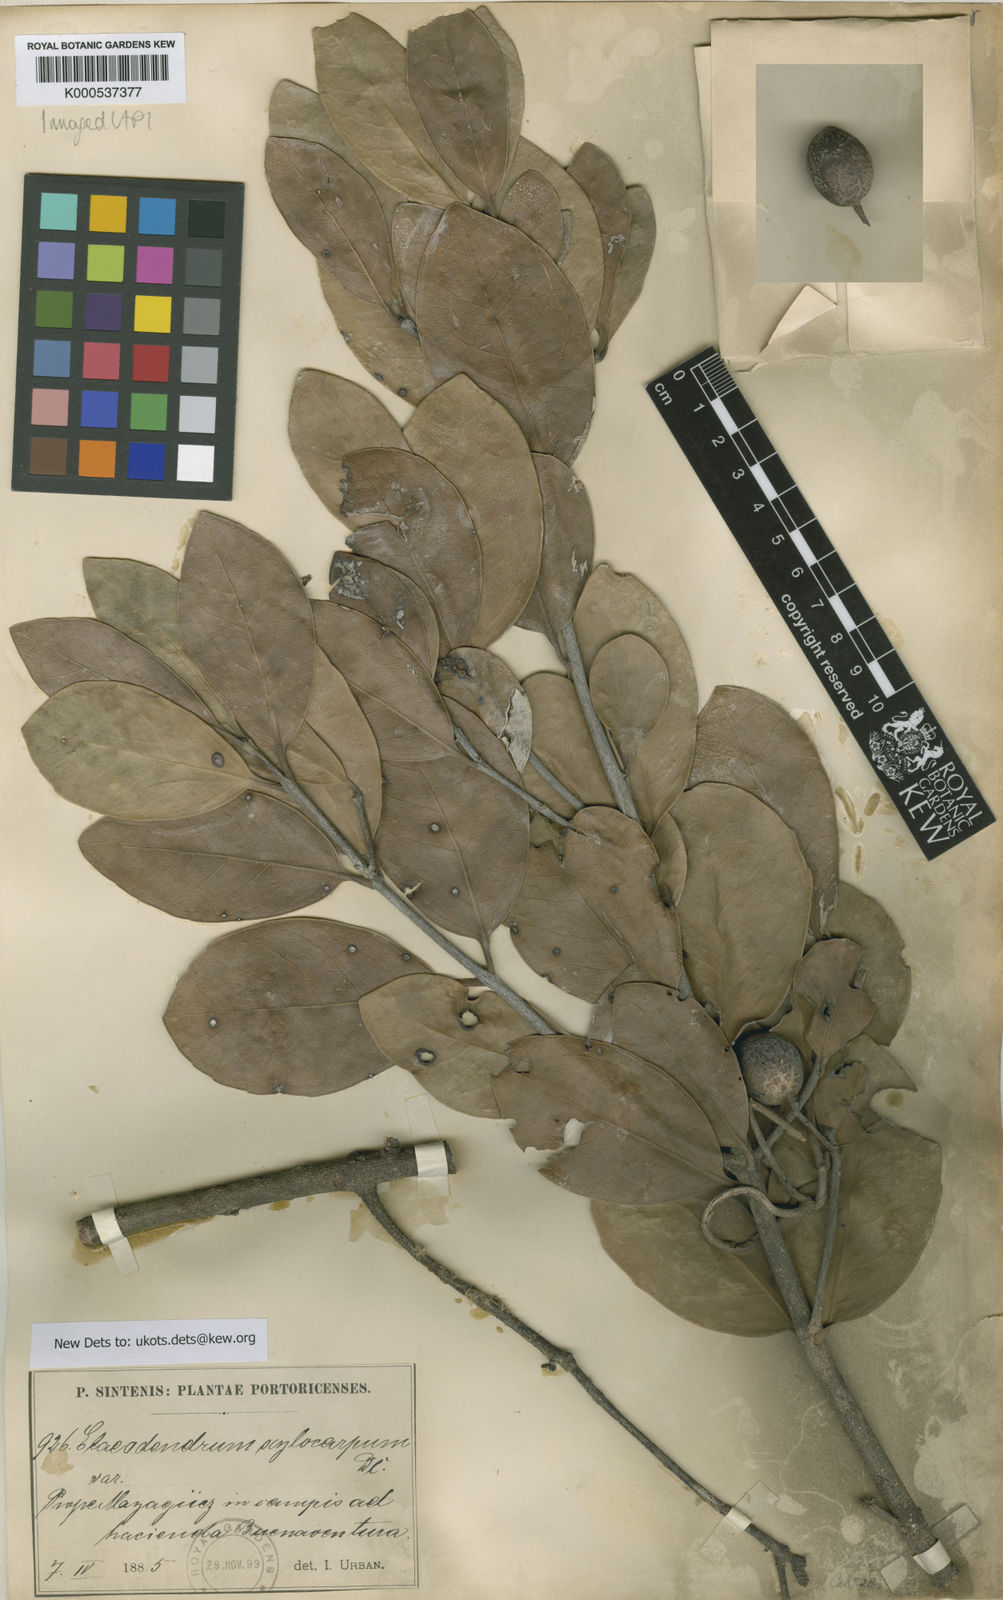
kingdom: Plantae
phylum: Tracheophyta
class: Magnoliopsida
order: Celastrales
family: Celastraceae
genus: Elaeodendron
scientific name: Elaeodendron xylocarpum
